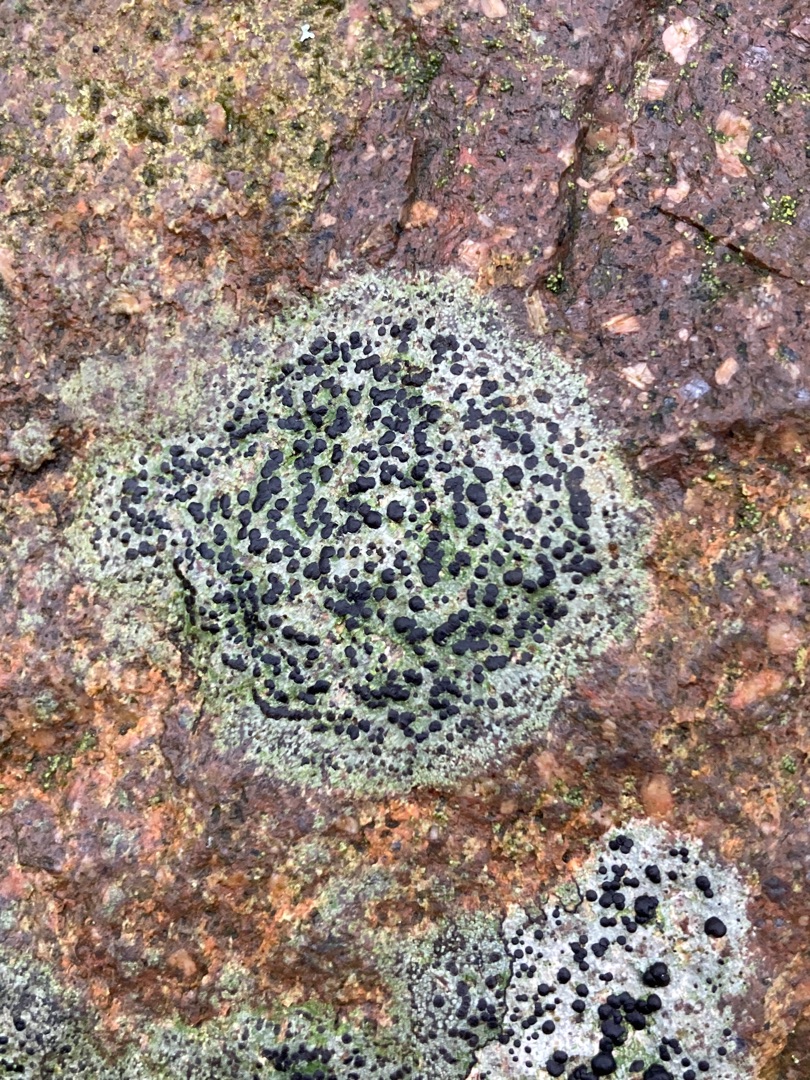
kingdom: Fungi
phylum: Ascomycota
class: Lecanoromycetes
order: Lecanorales
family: Lecanoraceae
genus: Lecidella
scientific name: Lecidella elaeochroma
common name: Grågrøn skivelav
